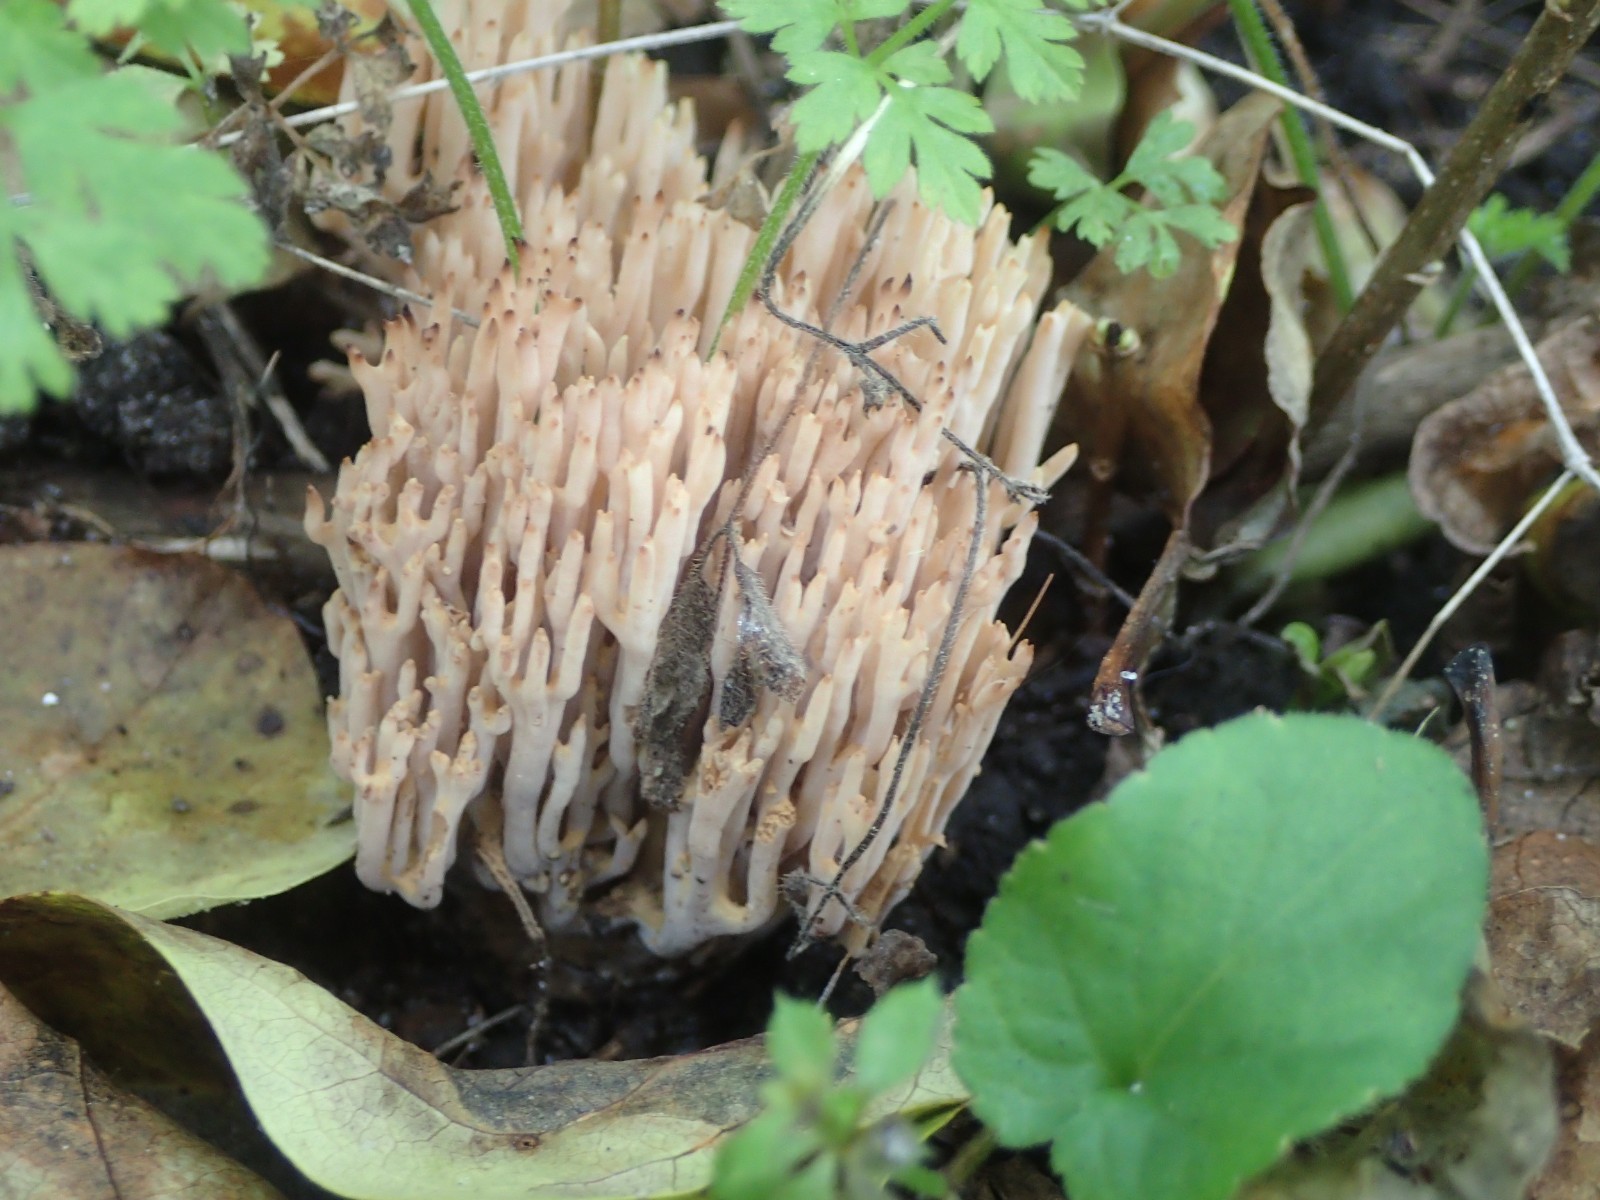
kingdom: Fungi
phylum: Basidiomycota
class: Agaricomycetes
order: Gomphales
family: Gomphaceae
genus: Ramaria
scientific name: Ramaria stricta
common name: rank koralsvamp
